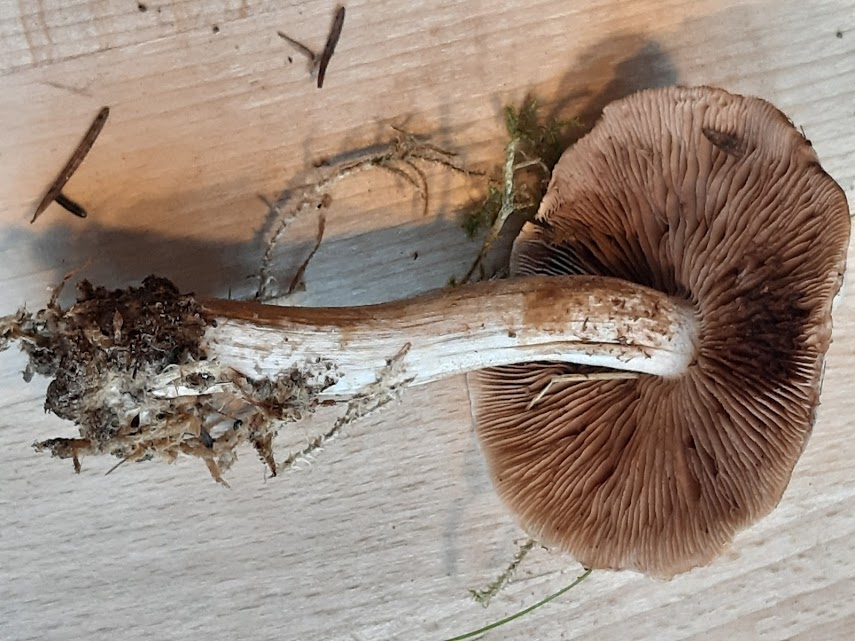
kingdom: Fungi
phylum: Basidiomycota
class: Agaricomycetes
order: Agaricales
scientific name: Agaricales
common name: champignonordenen
